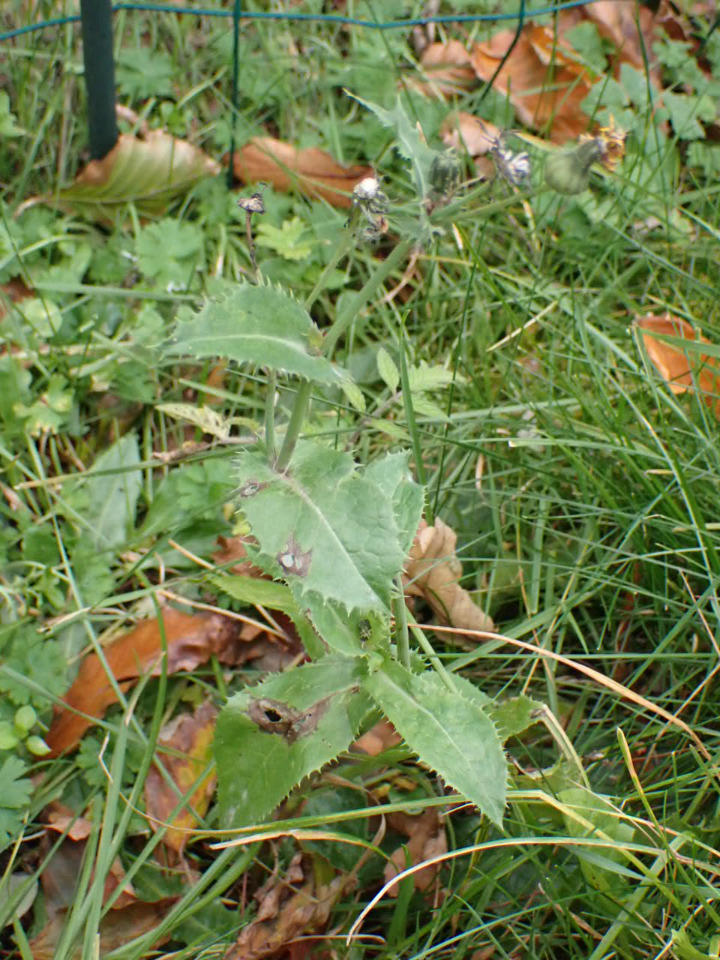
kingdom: Plantae
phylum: Tracheophyta
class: Magnoliopsida
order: Asterales
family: Asteraceae
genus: Sonchus
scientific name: Sonchus asper
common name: Ru svinemælk
